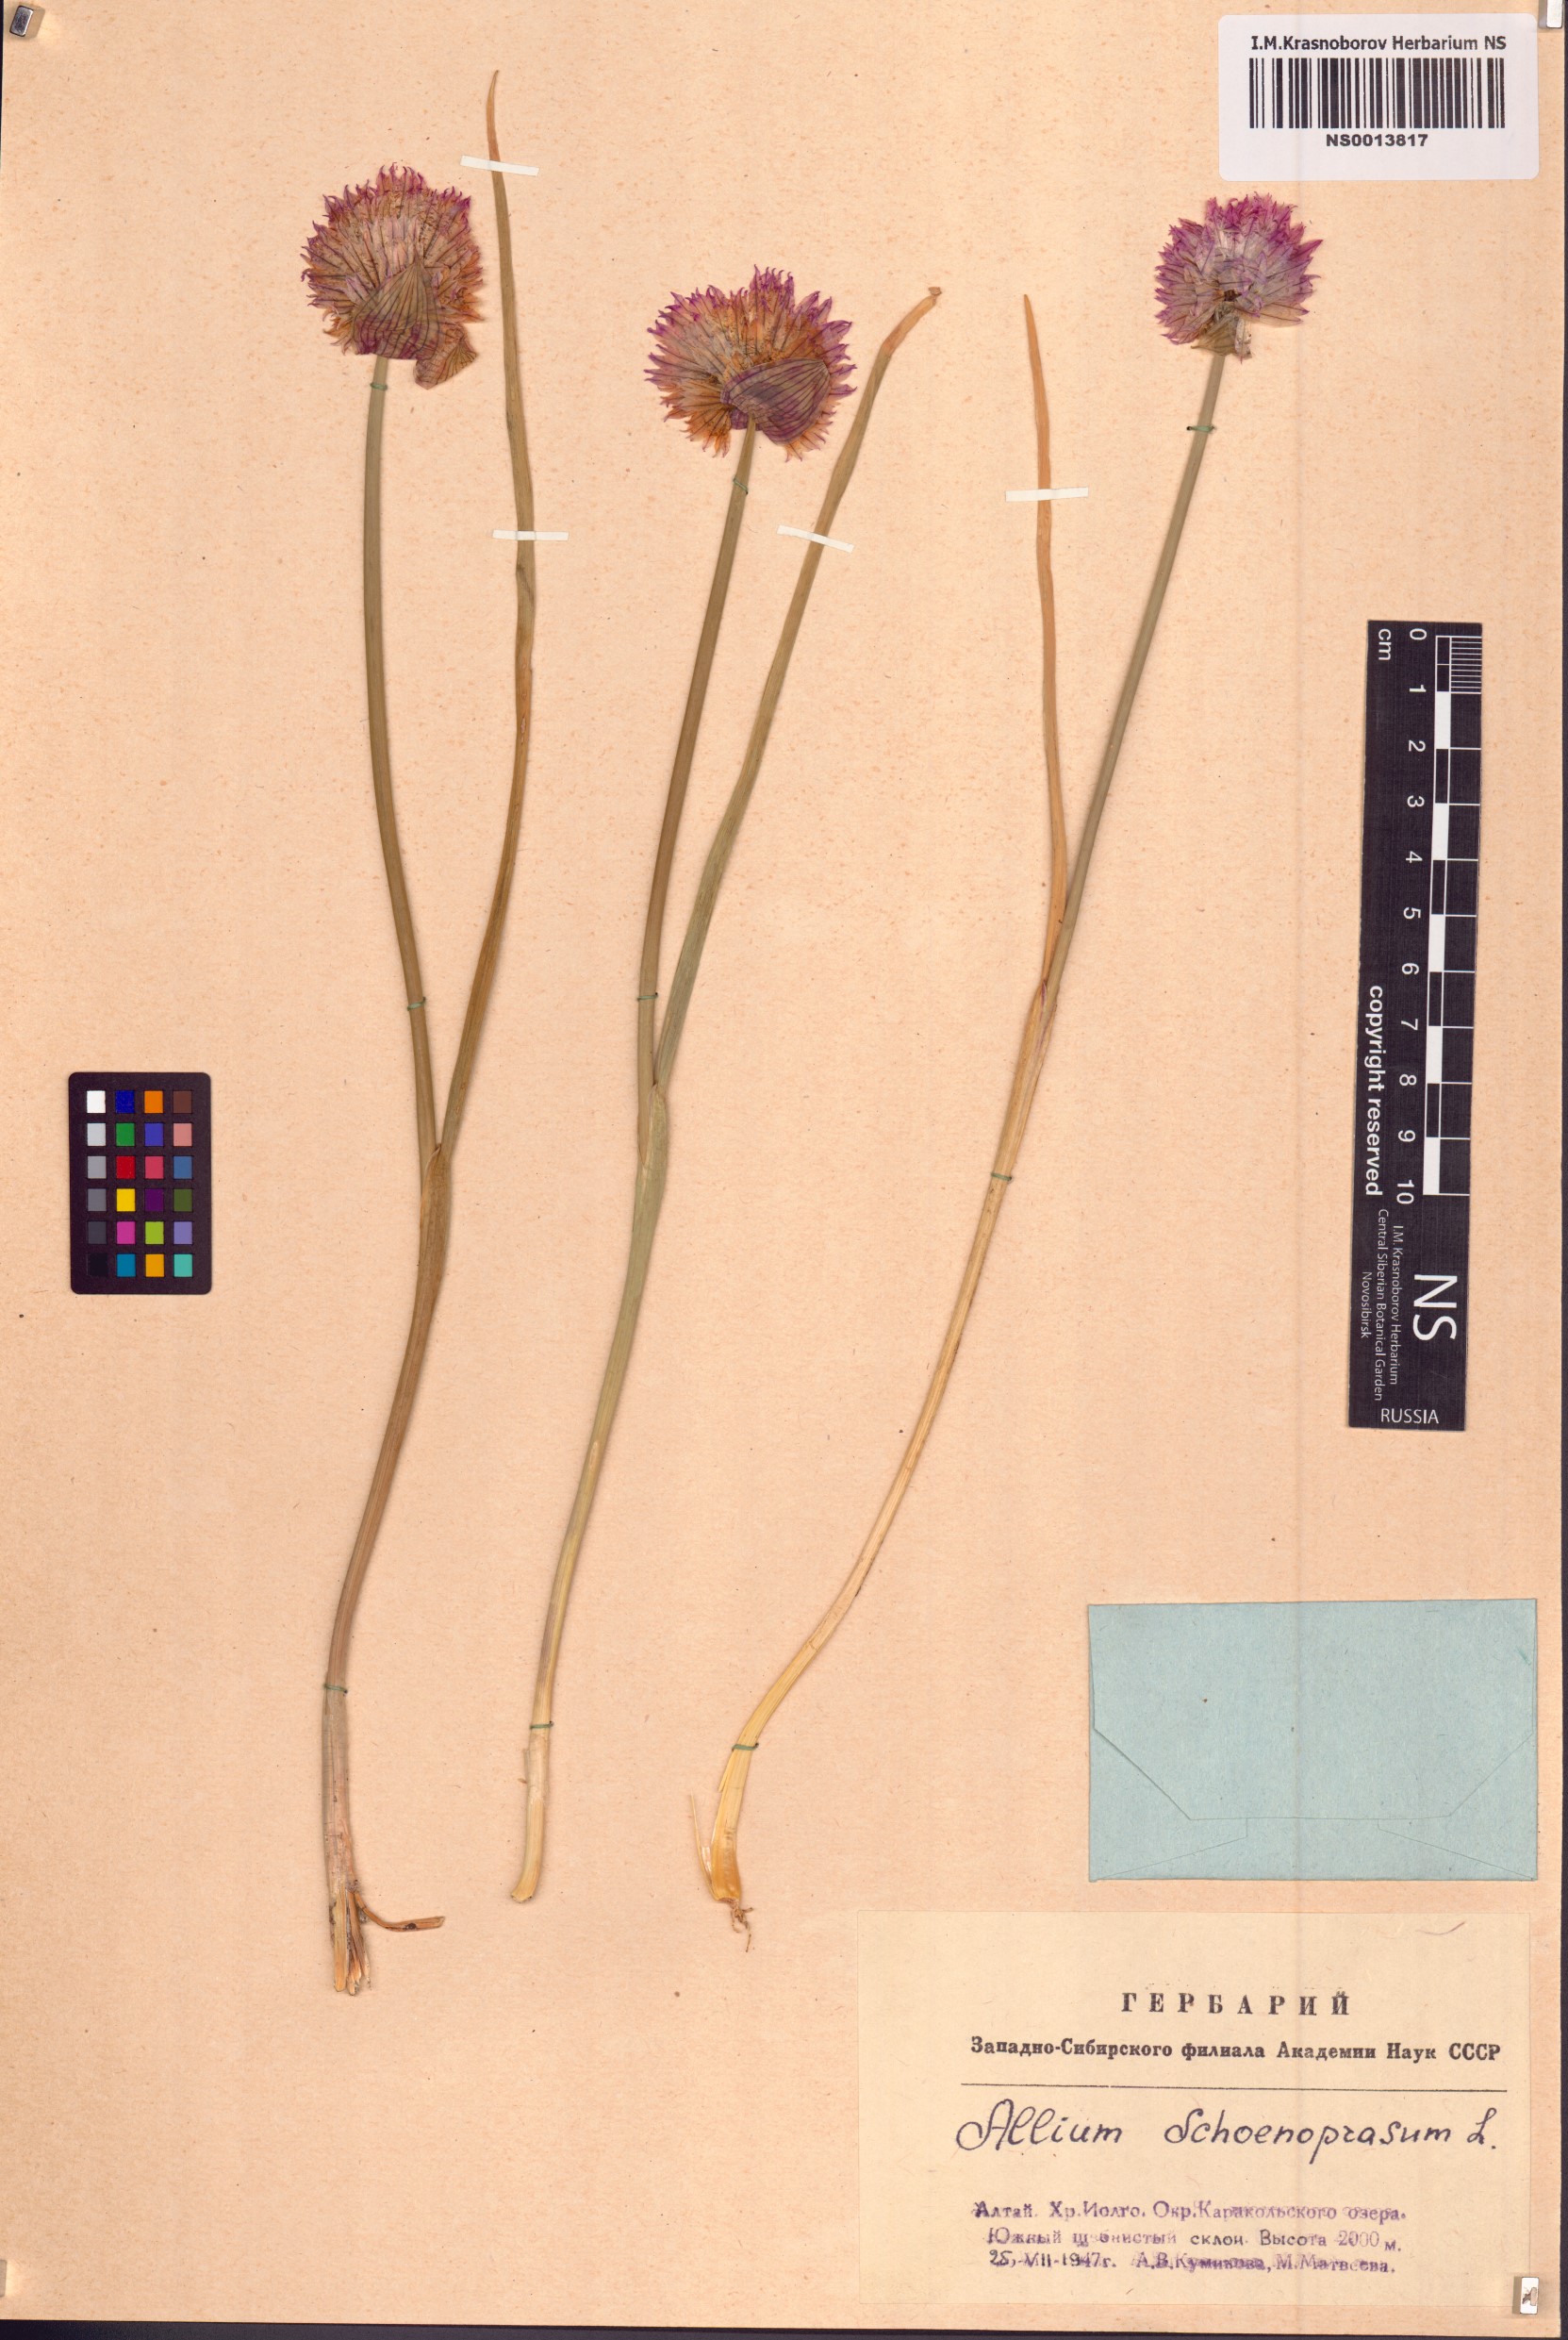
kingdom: Plantae
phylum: Tracheophyta
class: Liliopsida
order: Asparagales
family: Amaryllidaceae
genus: Allium
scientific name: Allium schoenoprasum
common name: Chives
